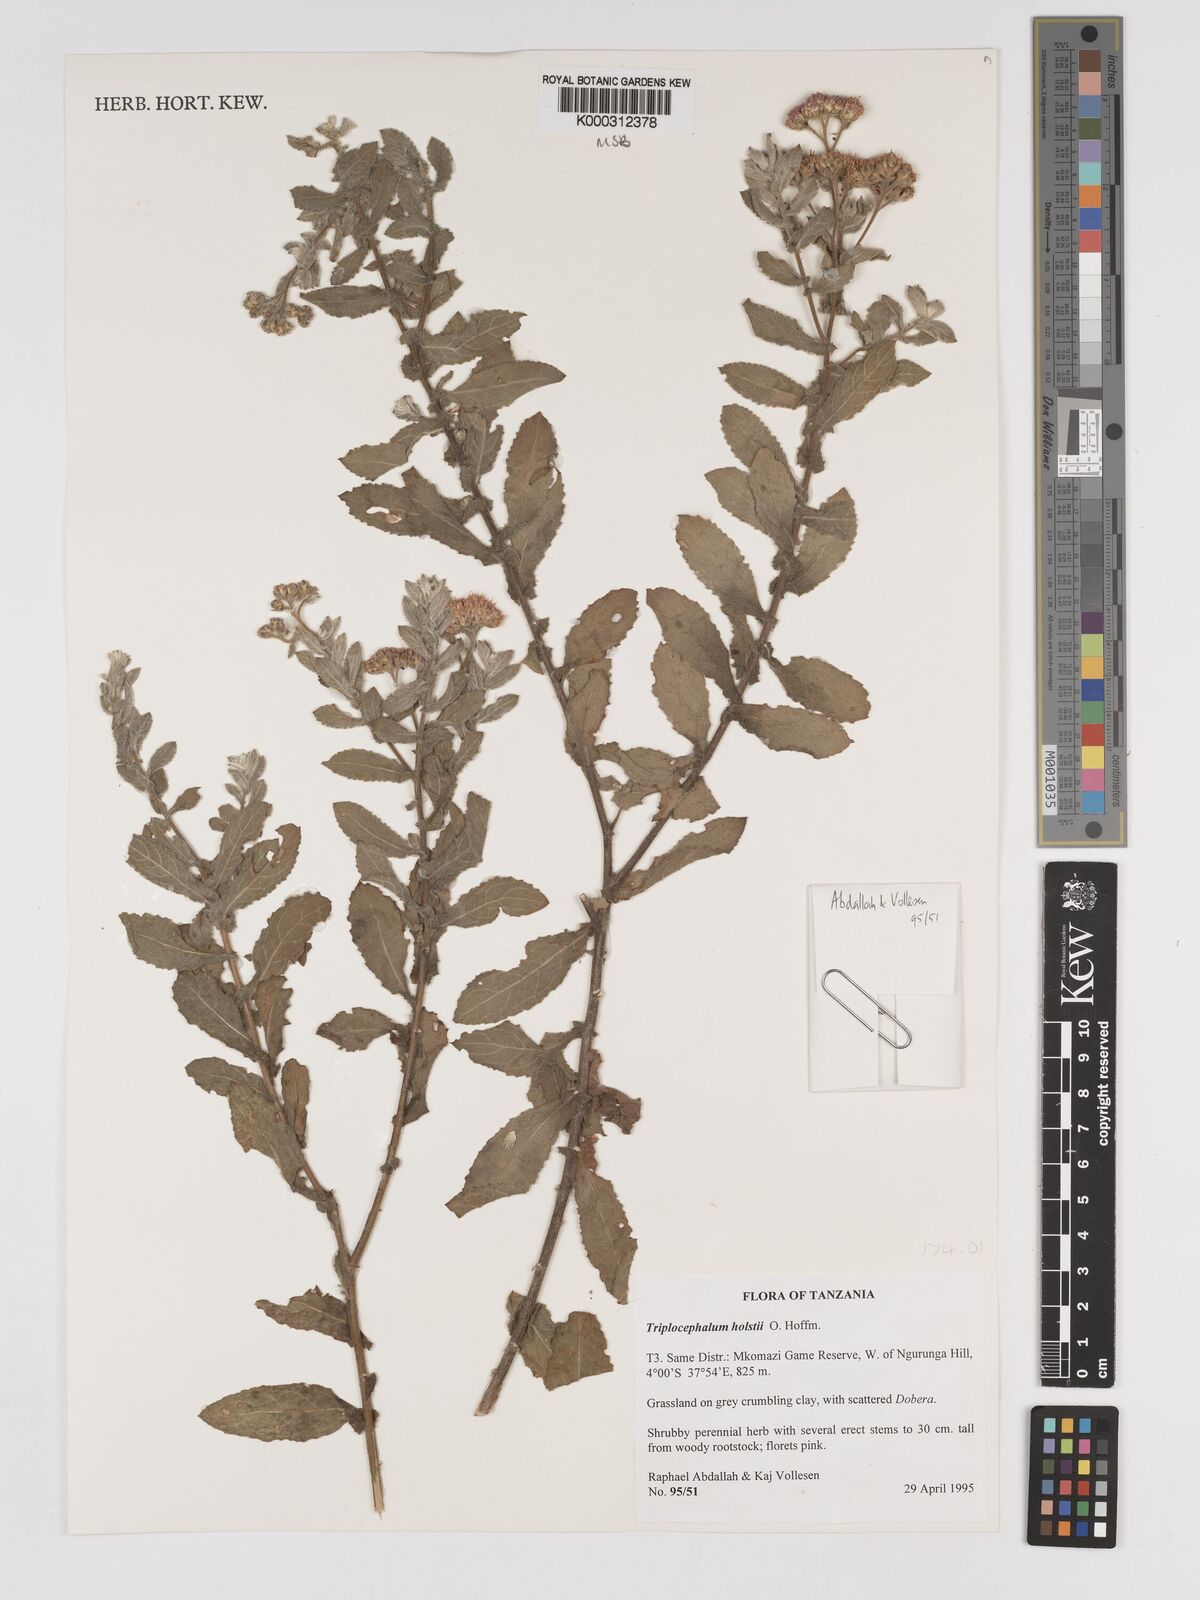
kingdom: Plantae
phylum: Tracheophyta
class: Magnoliopsida
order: Asterales
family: Asteraceae
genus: Triplocephalum
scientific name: Triplocephalum holstii
